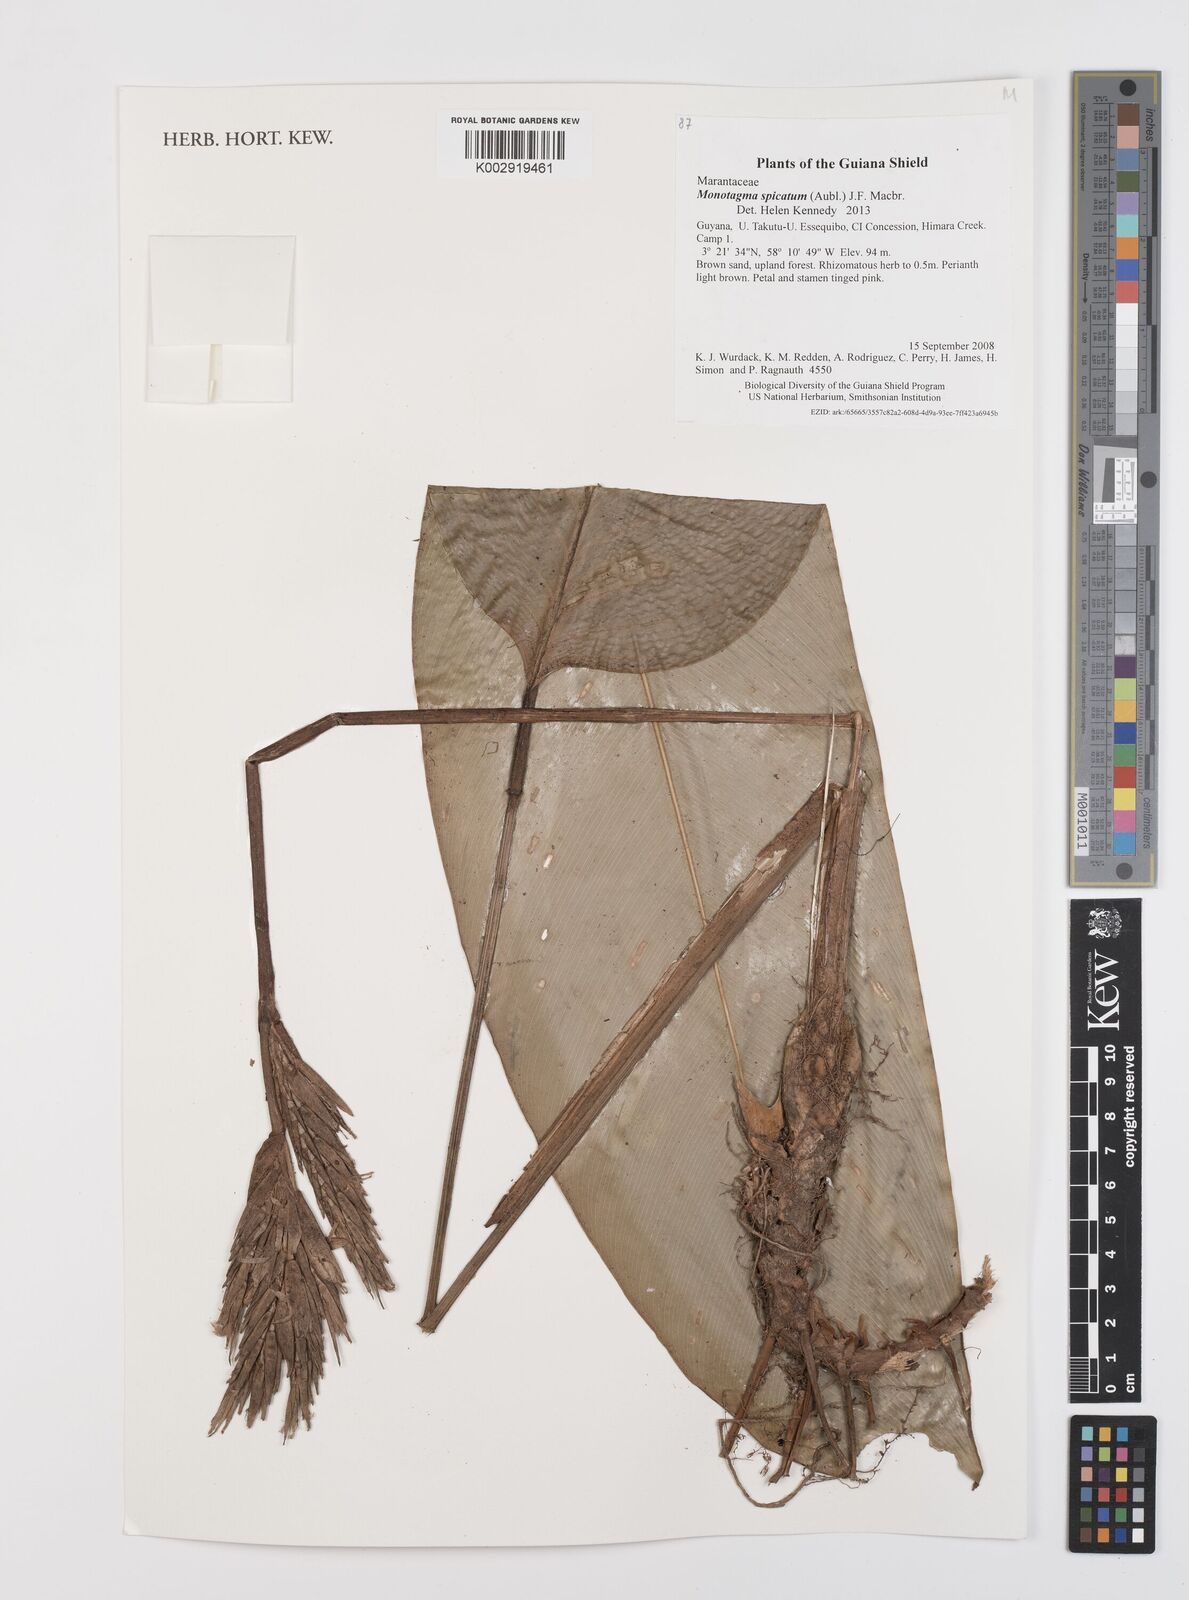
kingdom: Plantae
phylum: Tracheophyta
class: Liliopsida
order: Zingiberales
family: Marantaceae
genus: Monotagma
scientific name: Monotagma spicatum
